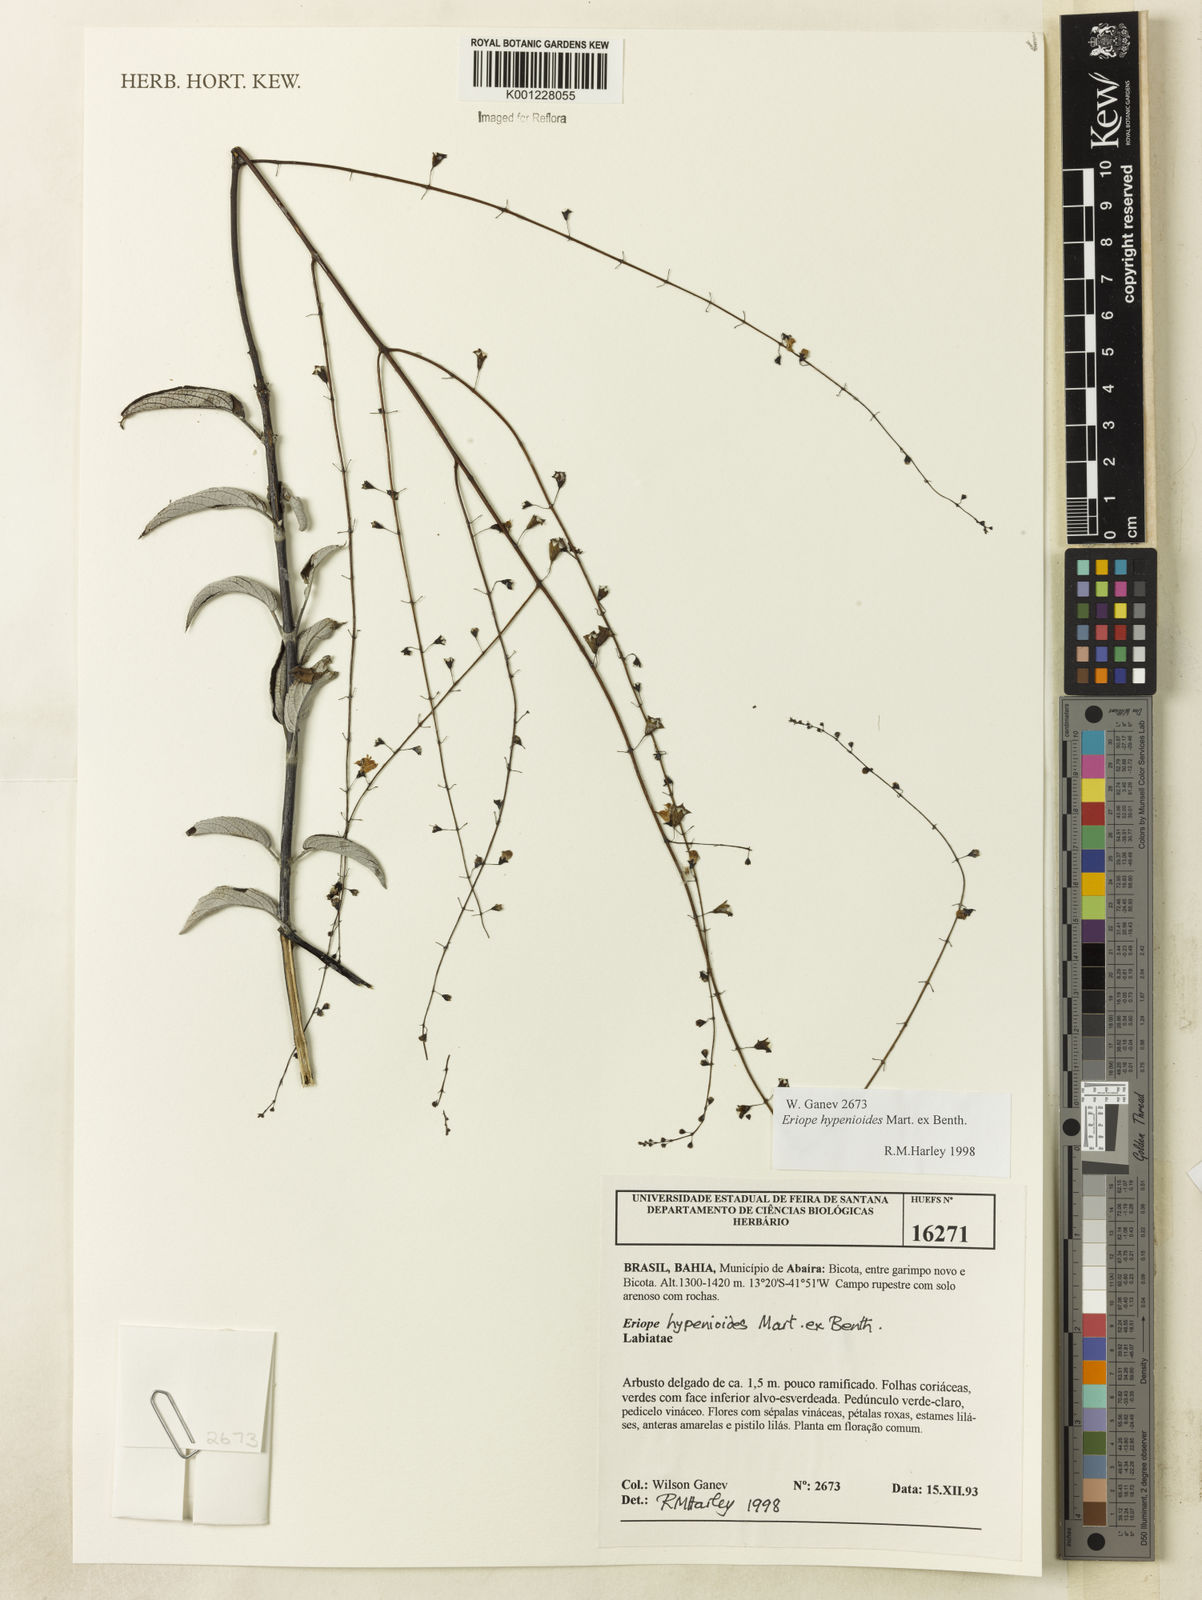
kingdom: Plantae
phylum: Tracheophyta
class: Magnoliopsida
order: Lamiales
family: Lamiaceae
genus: Eriope
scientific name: Eriope hypenioides
